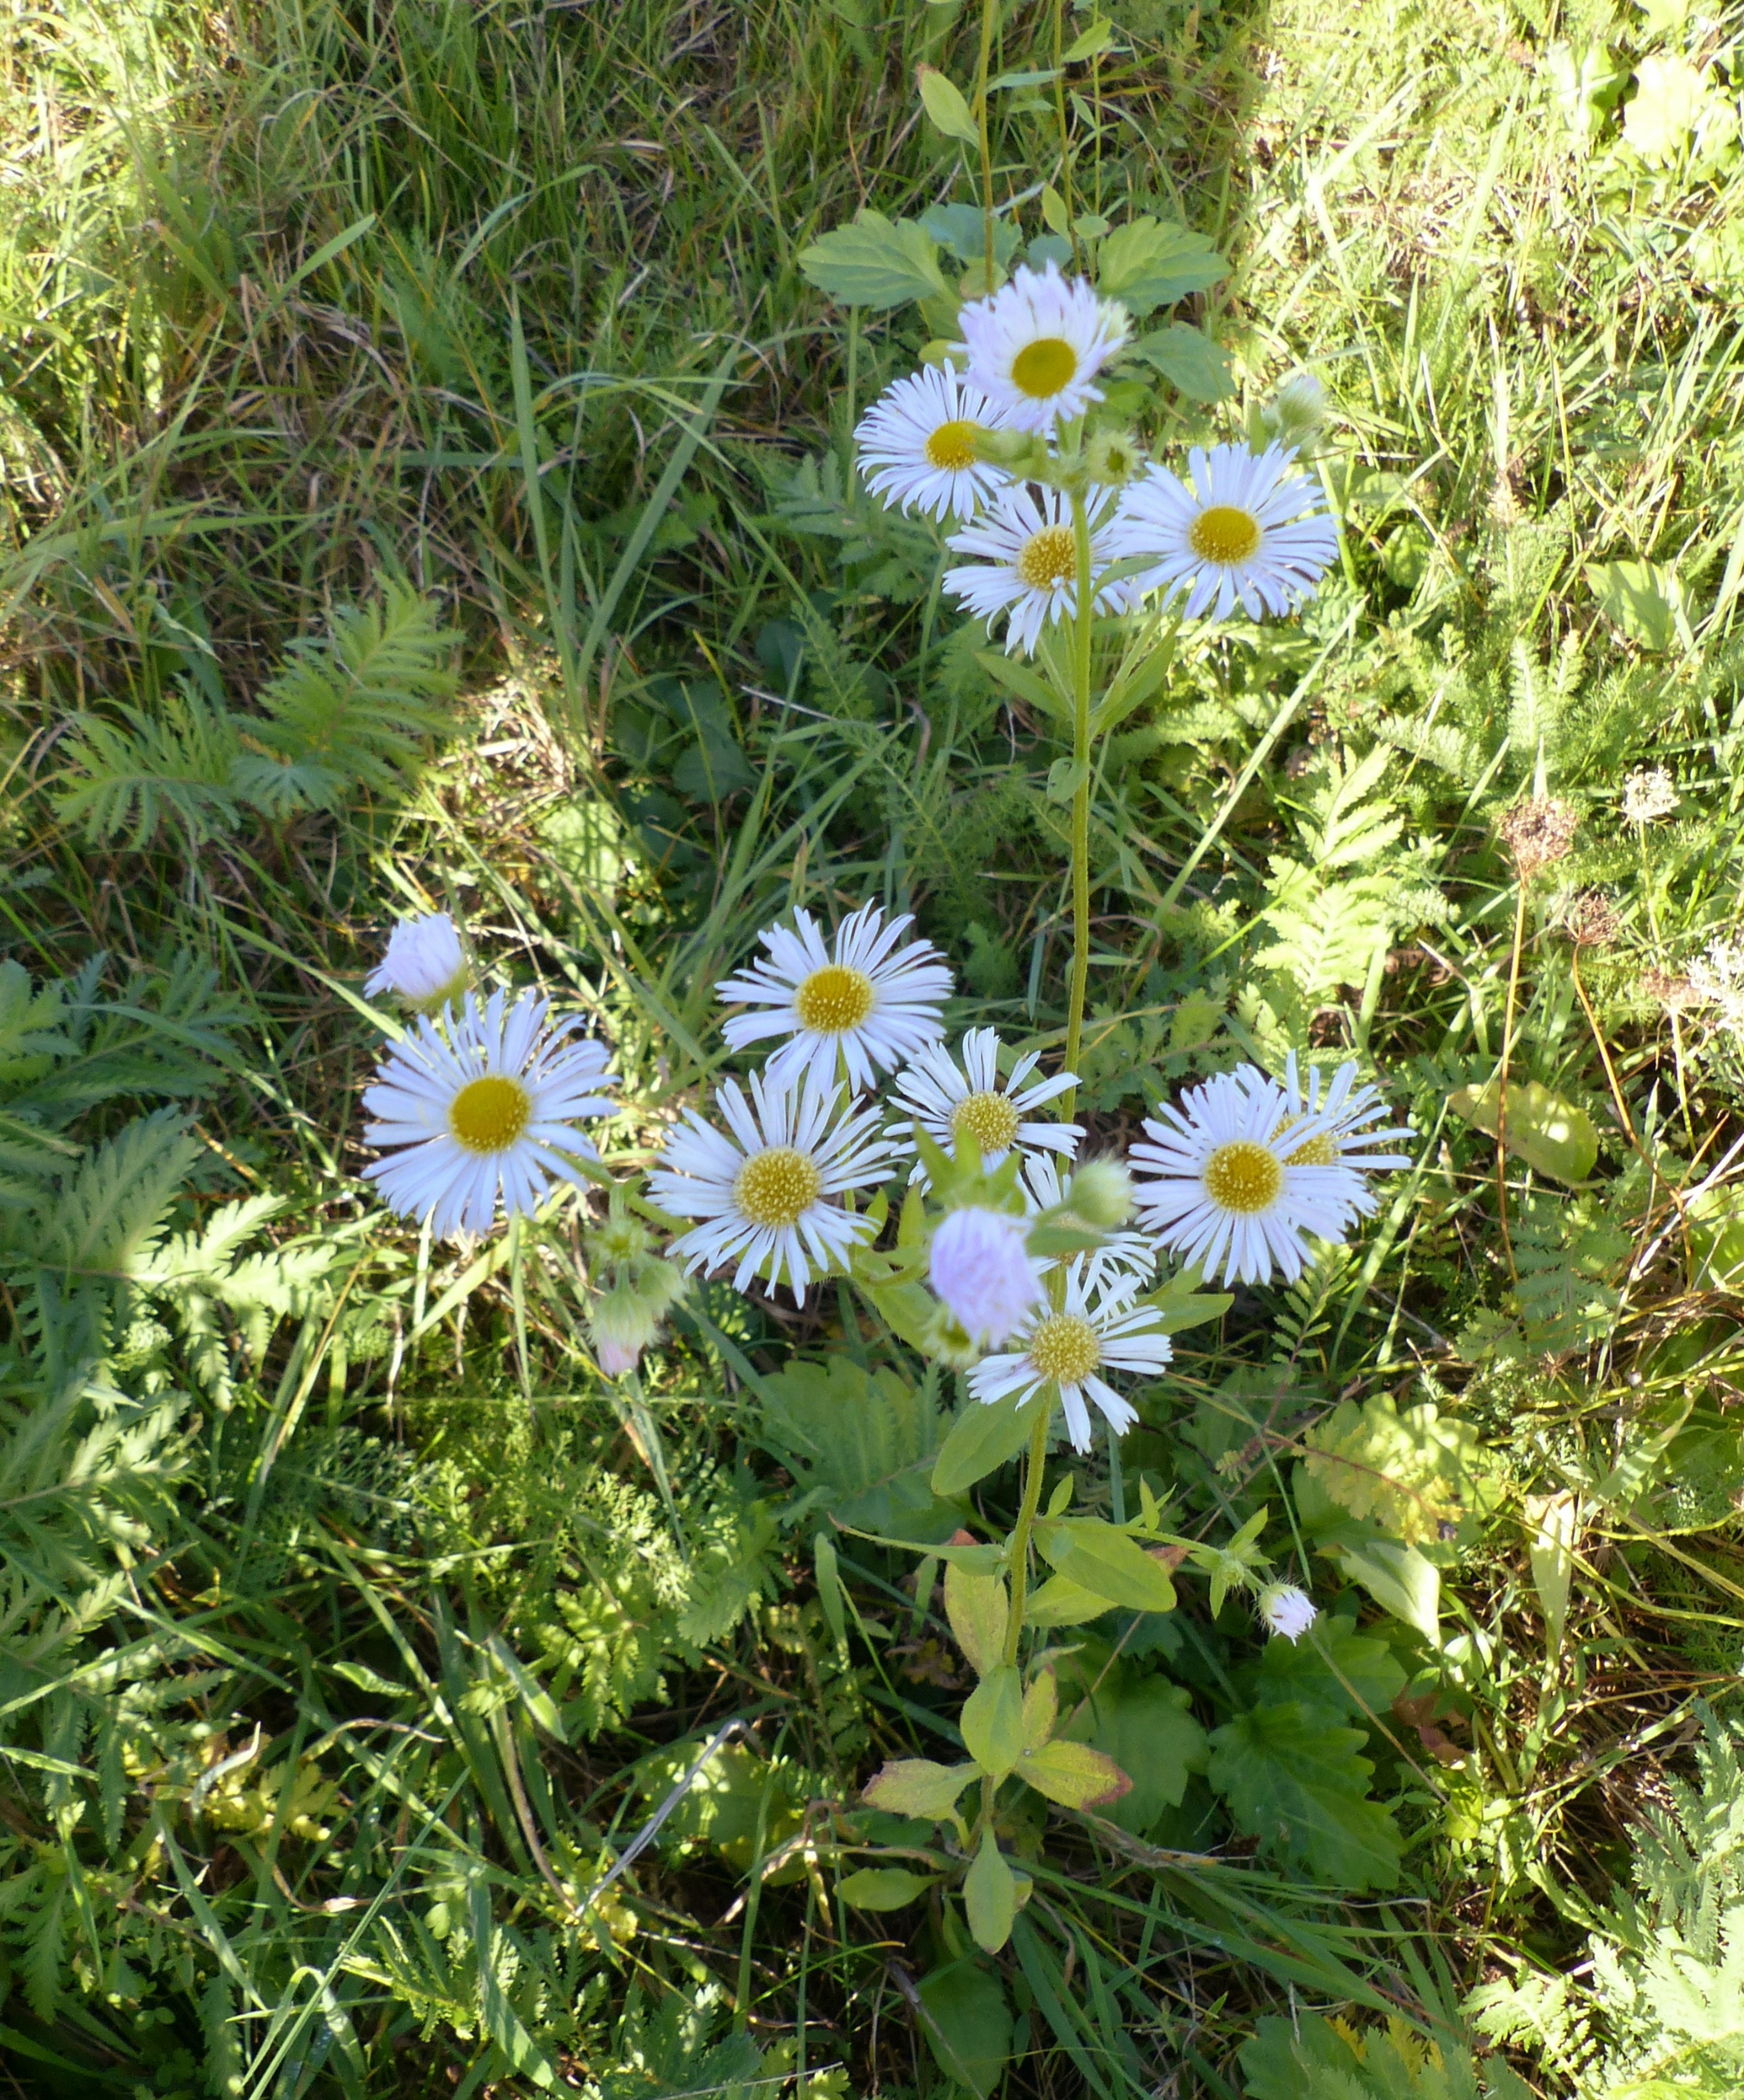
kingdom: Plantae
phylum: Tracheophyta
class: Magnoliopsida
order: Asterales
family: Asteraceae
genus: Erigeron
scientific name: Erigeron annuus
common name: Smalstråle
